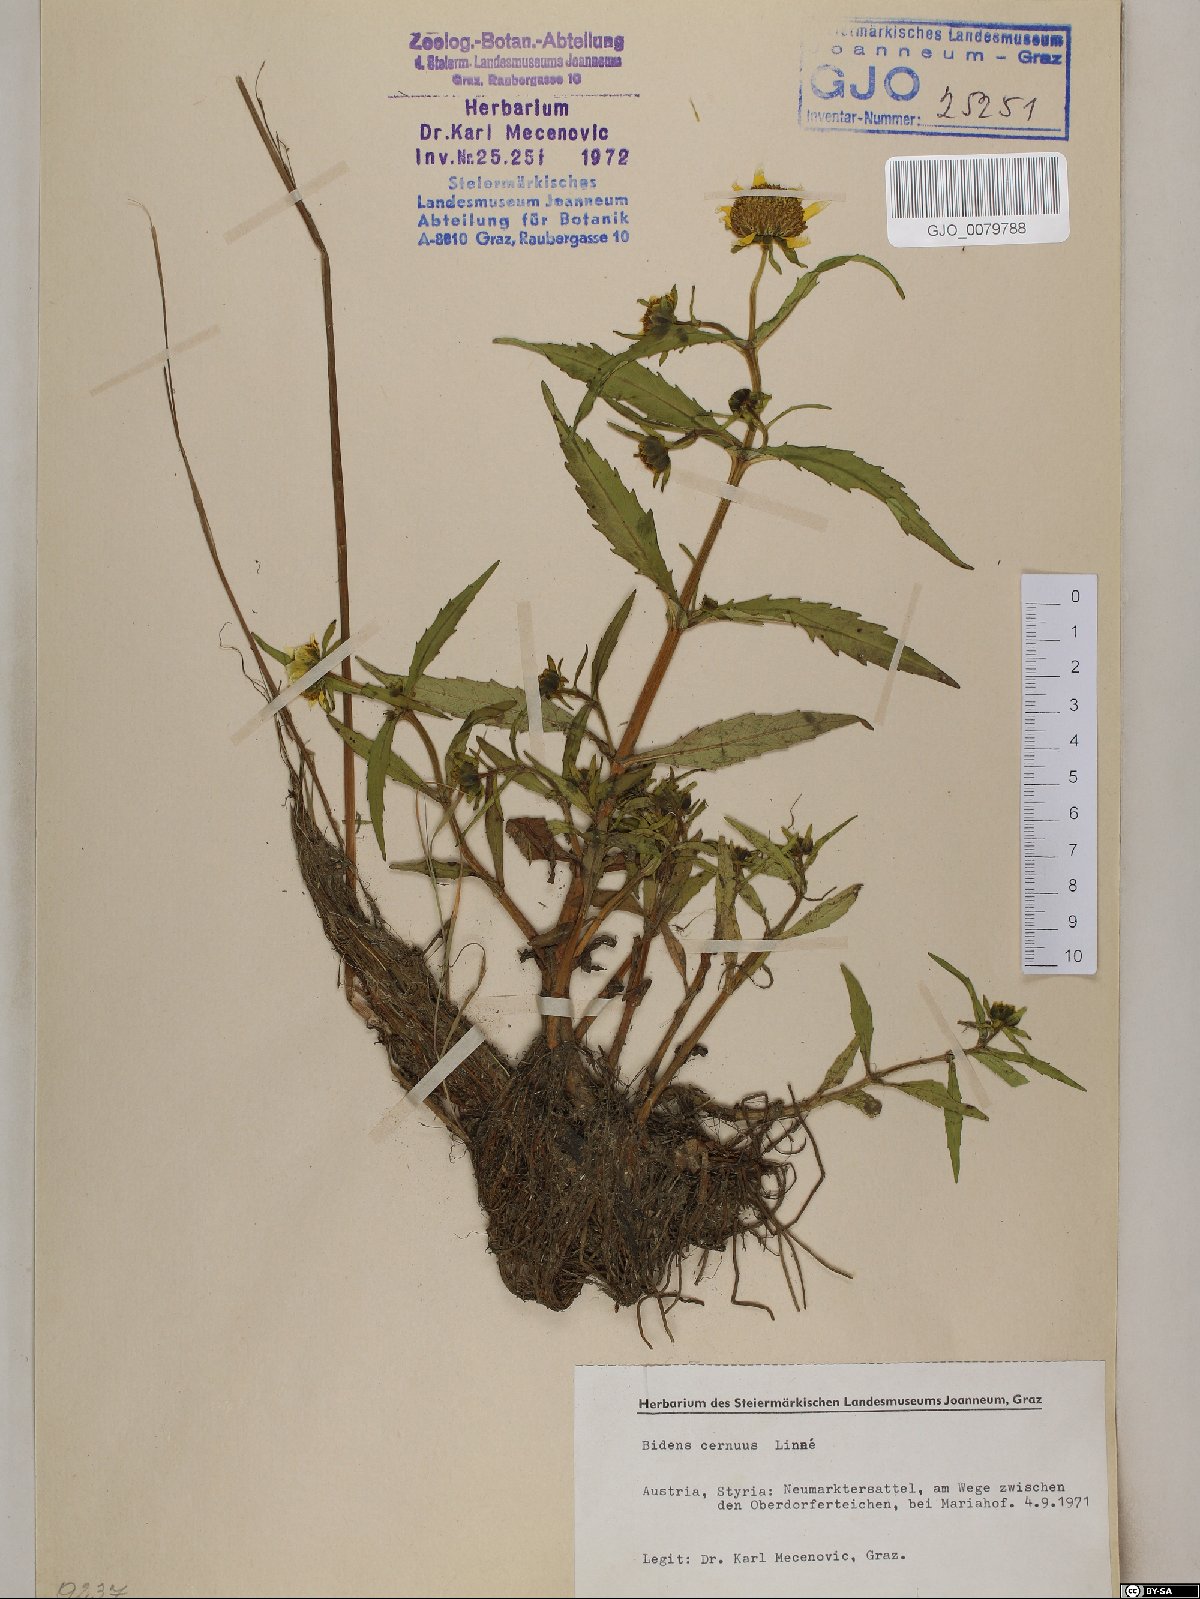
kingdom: Plantae
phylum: Tracheophyta
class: Magnoliopsida
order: Asterales
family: Asteraceae
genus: Bidens
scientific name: Bidens cernua
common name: Nodding bur-marigold
